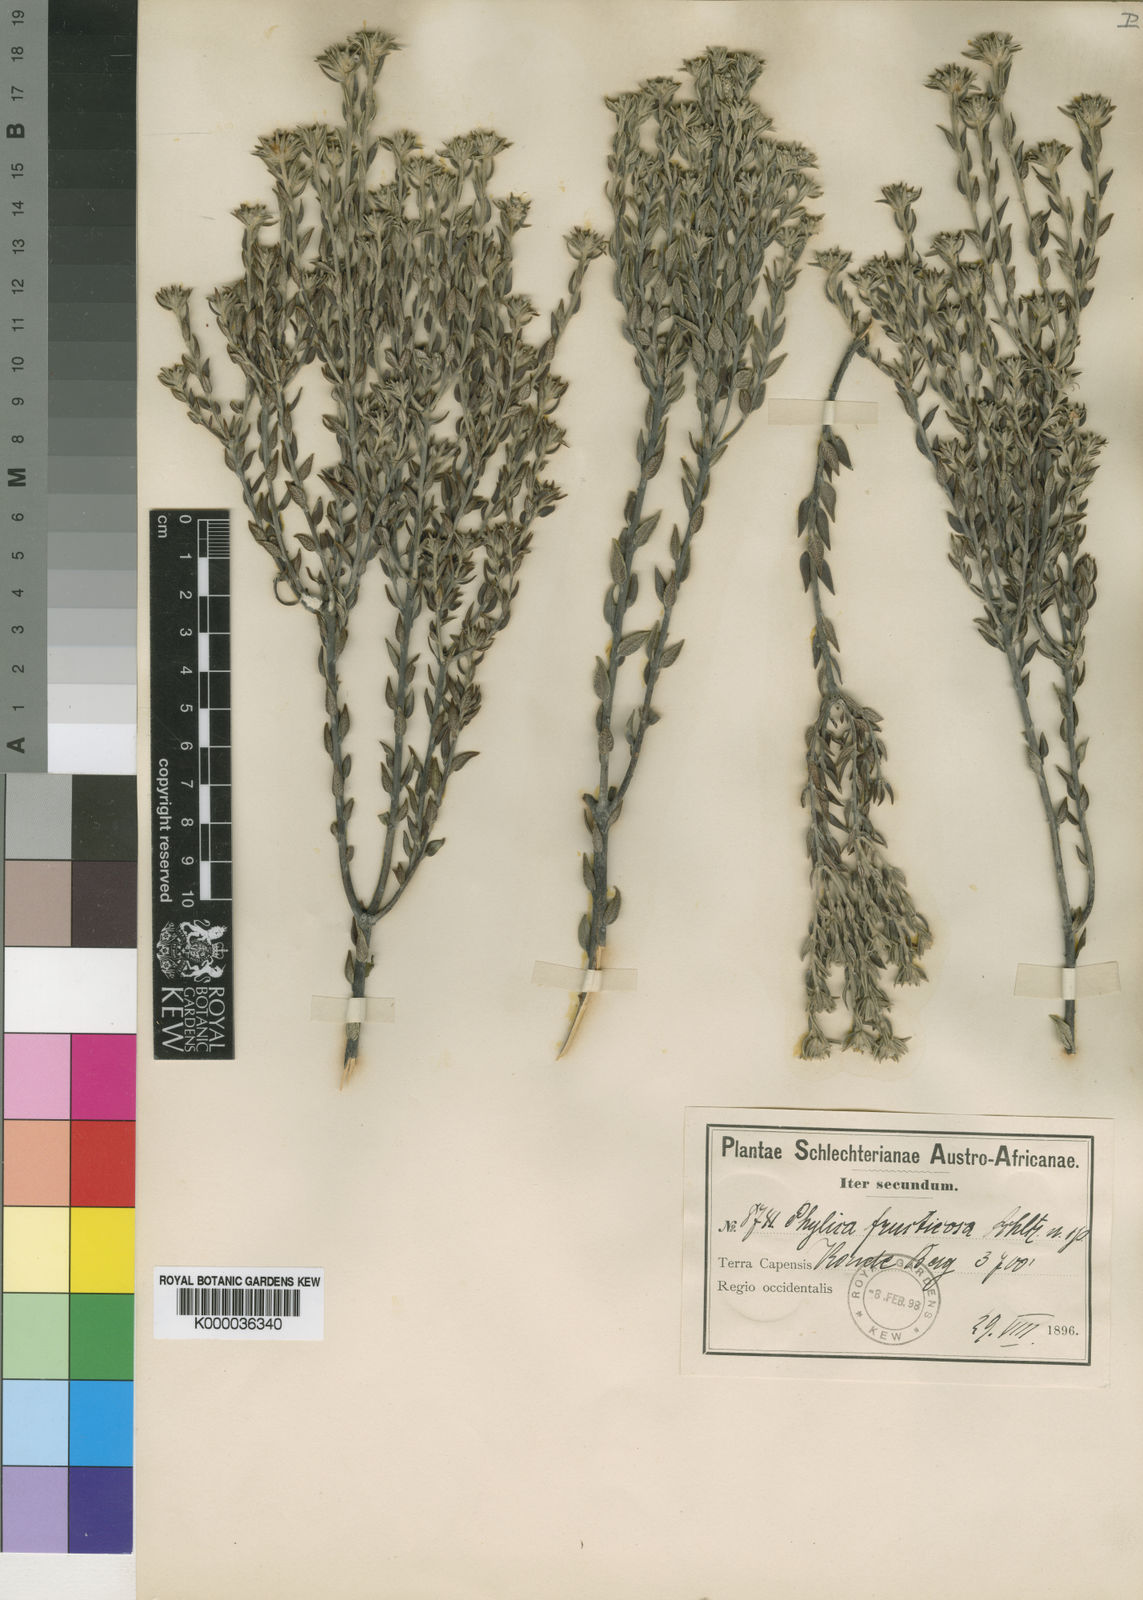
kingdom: Plantae
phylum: Tracheophyta
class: Magnoliopsida
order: Rosales
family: Rhamnaceae
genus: Phylica
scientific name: Phylica fruticosa
